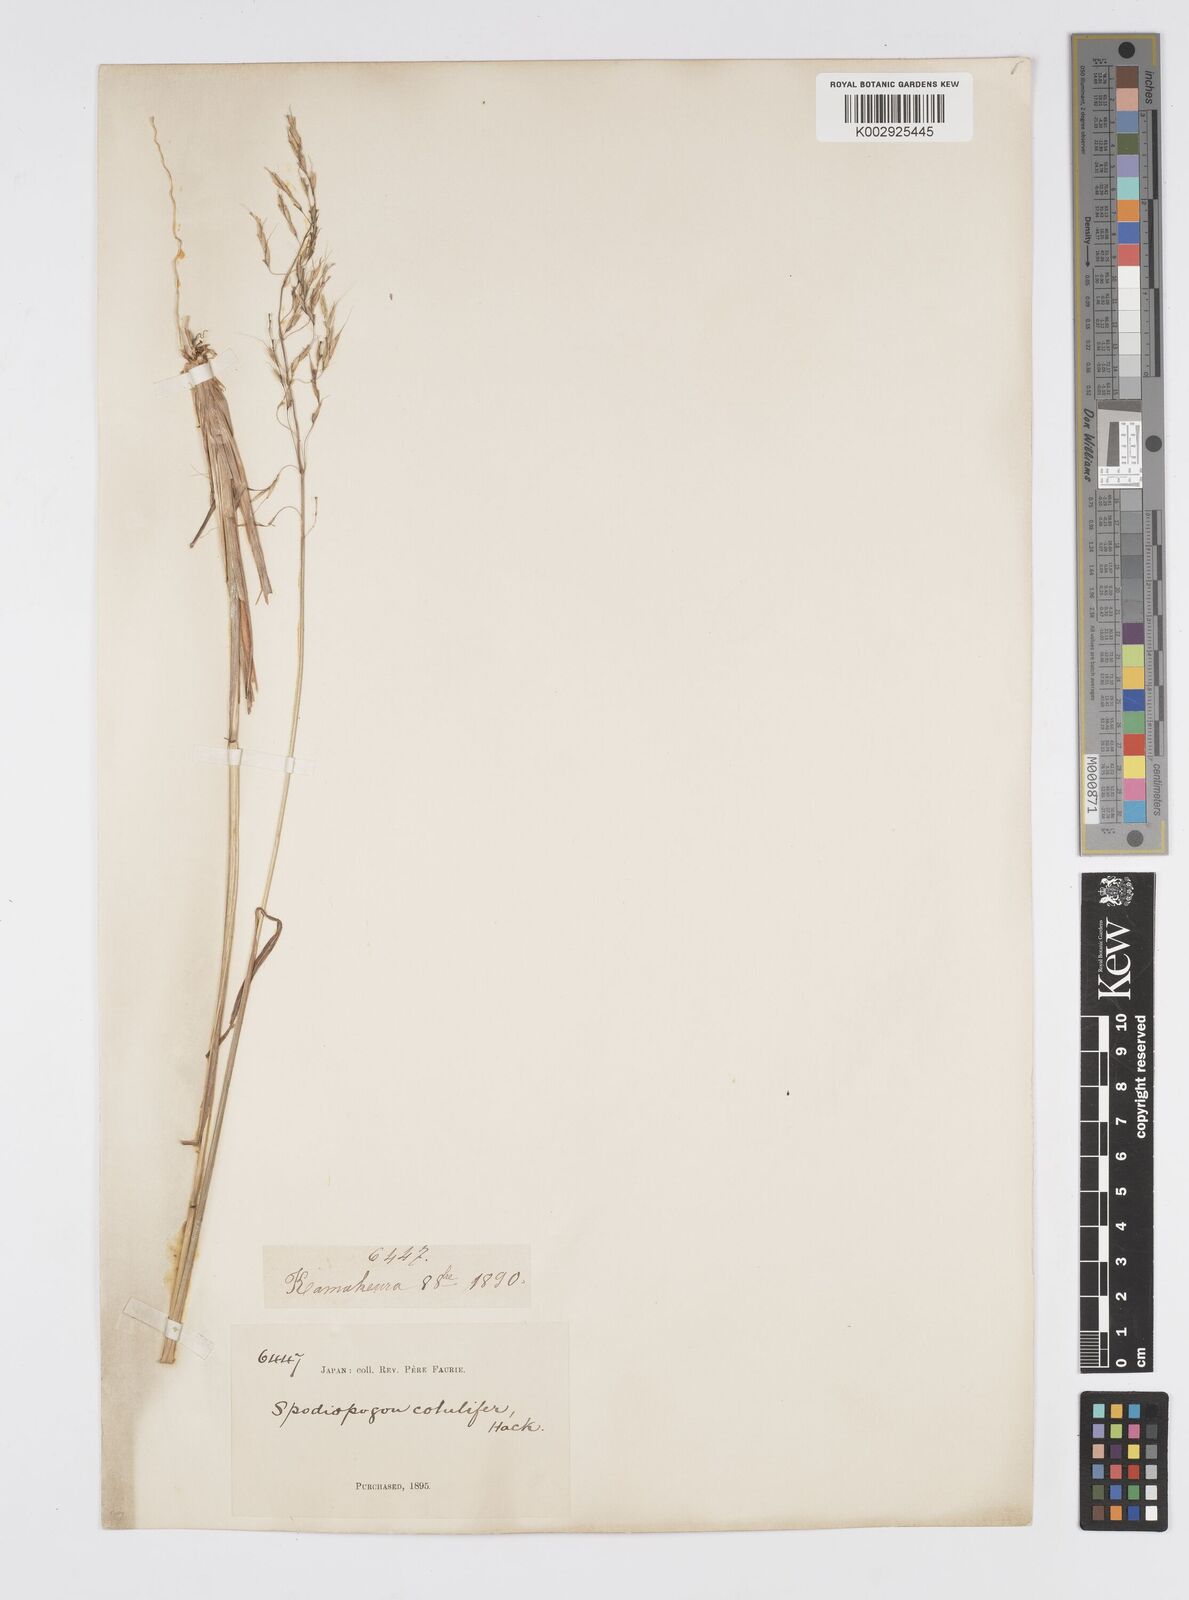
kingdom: Plantae
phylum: Tracheophyta
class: Liliopsida
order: Poales
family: Poaceae
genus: Spodiopogon
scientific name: Spodiopogon cotulifer
